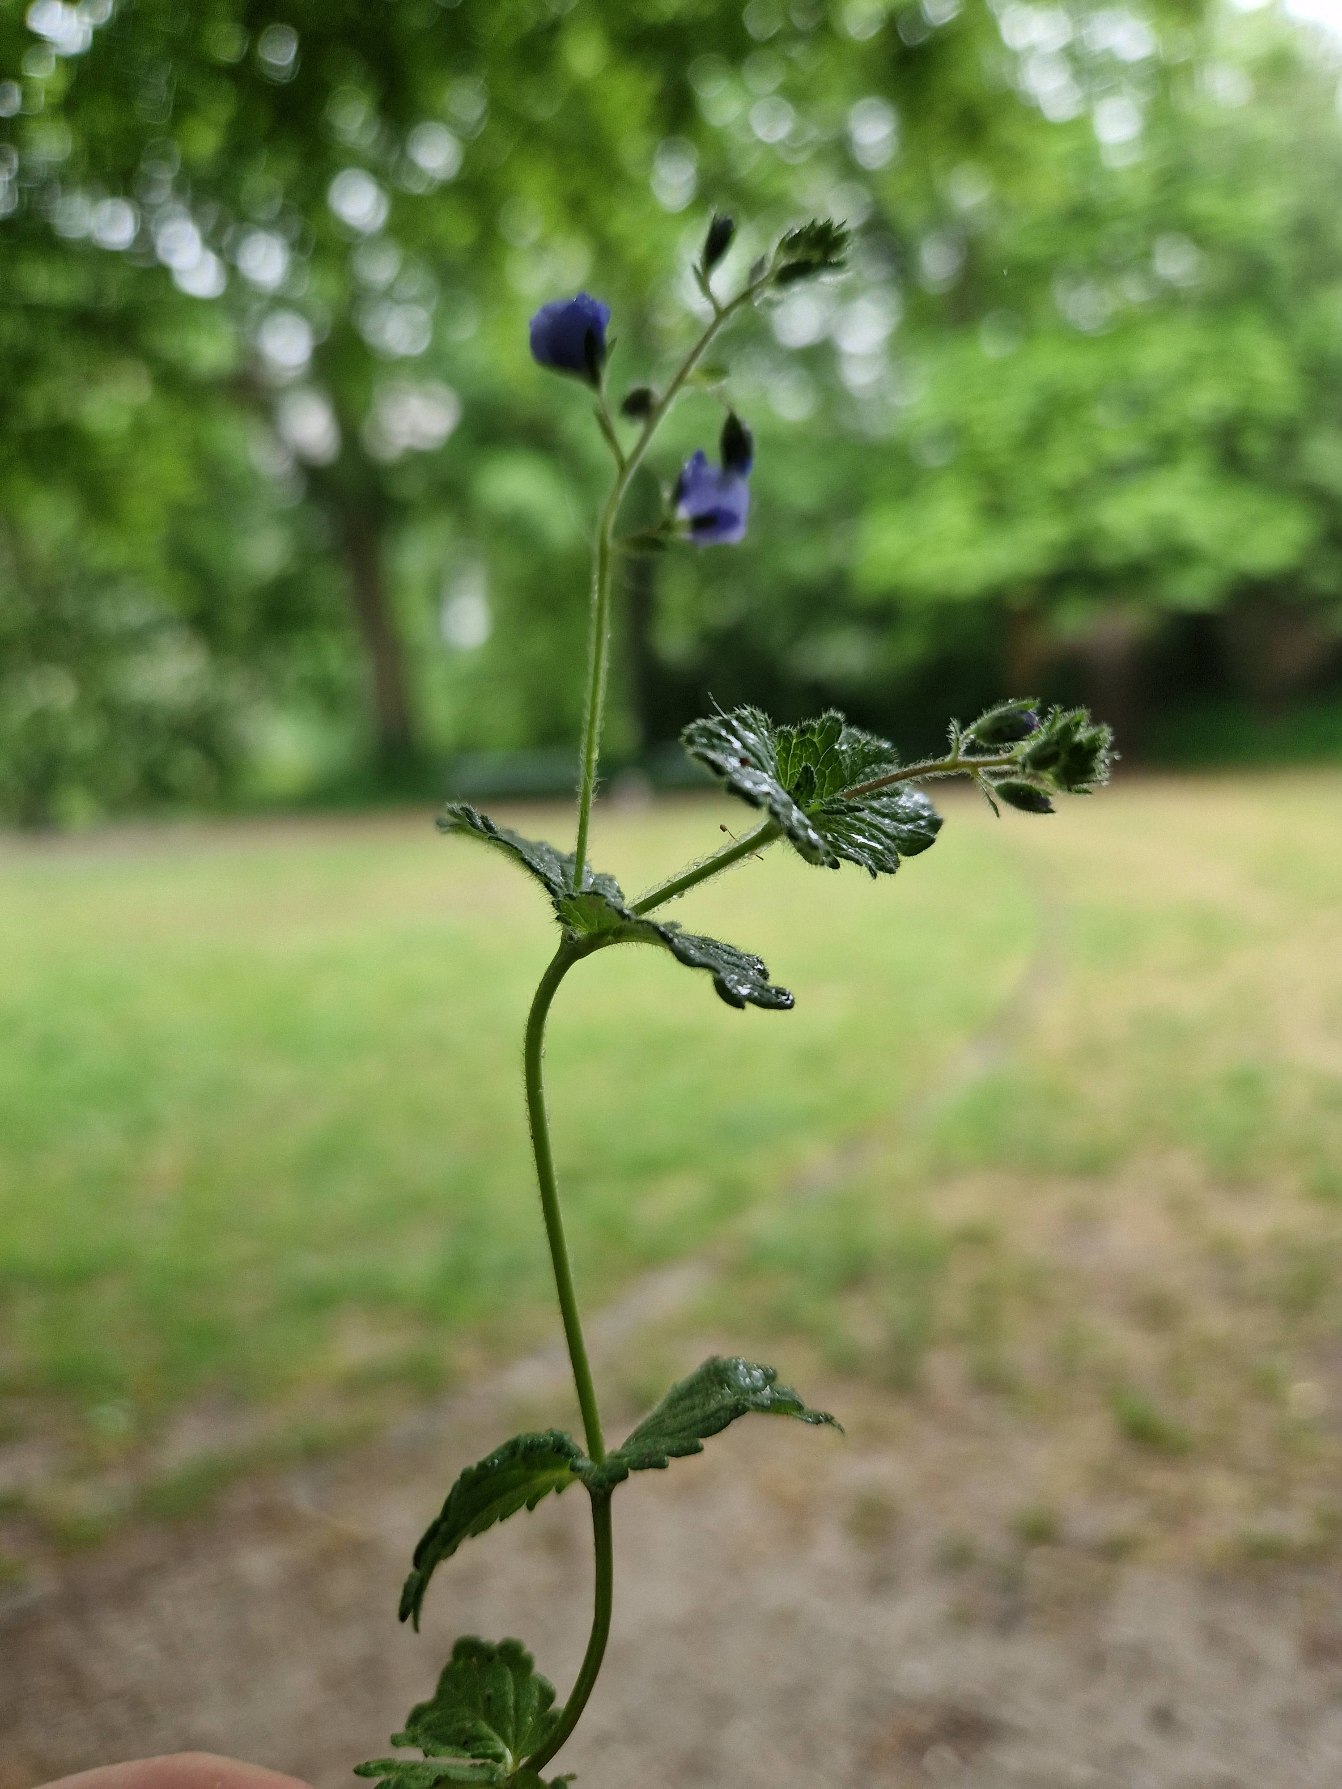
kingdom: Plantae
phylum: Tracheophyta
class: Magnoliopsida
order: Lamiales
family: Plantaginaceae
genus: Veronica
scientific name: Veronica chamaedrys
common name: Tveskægget ærenpris
